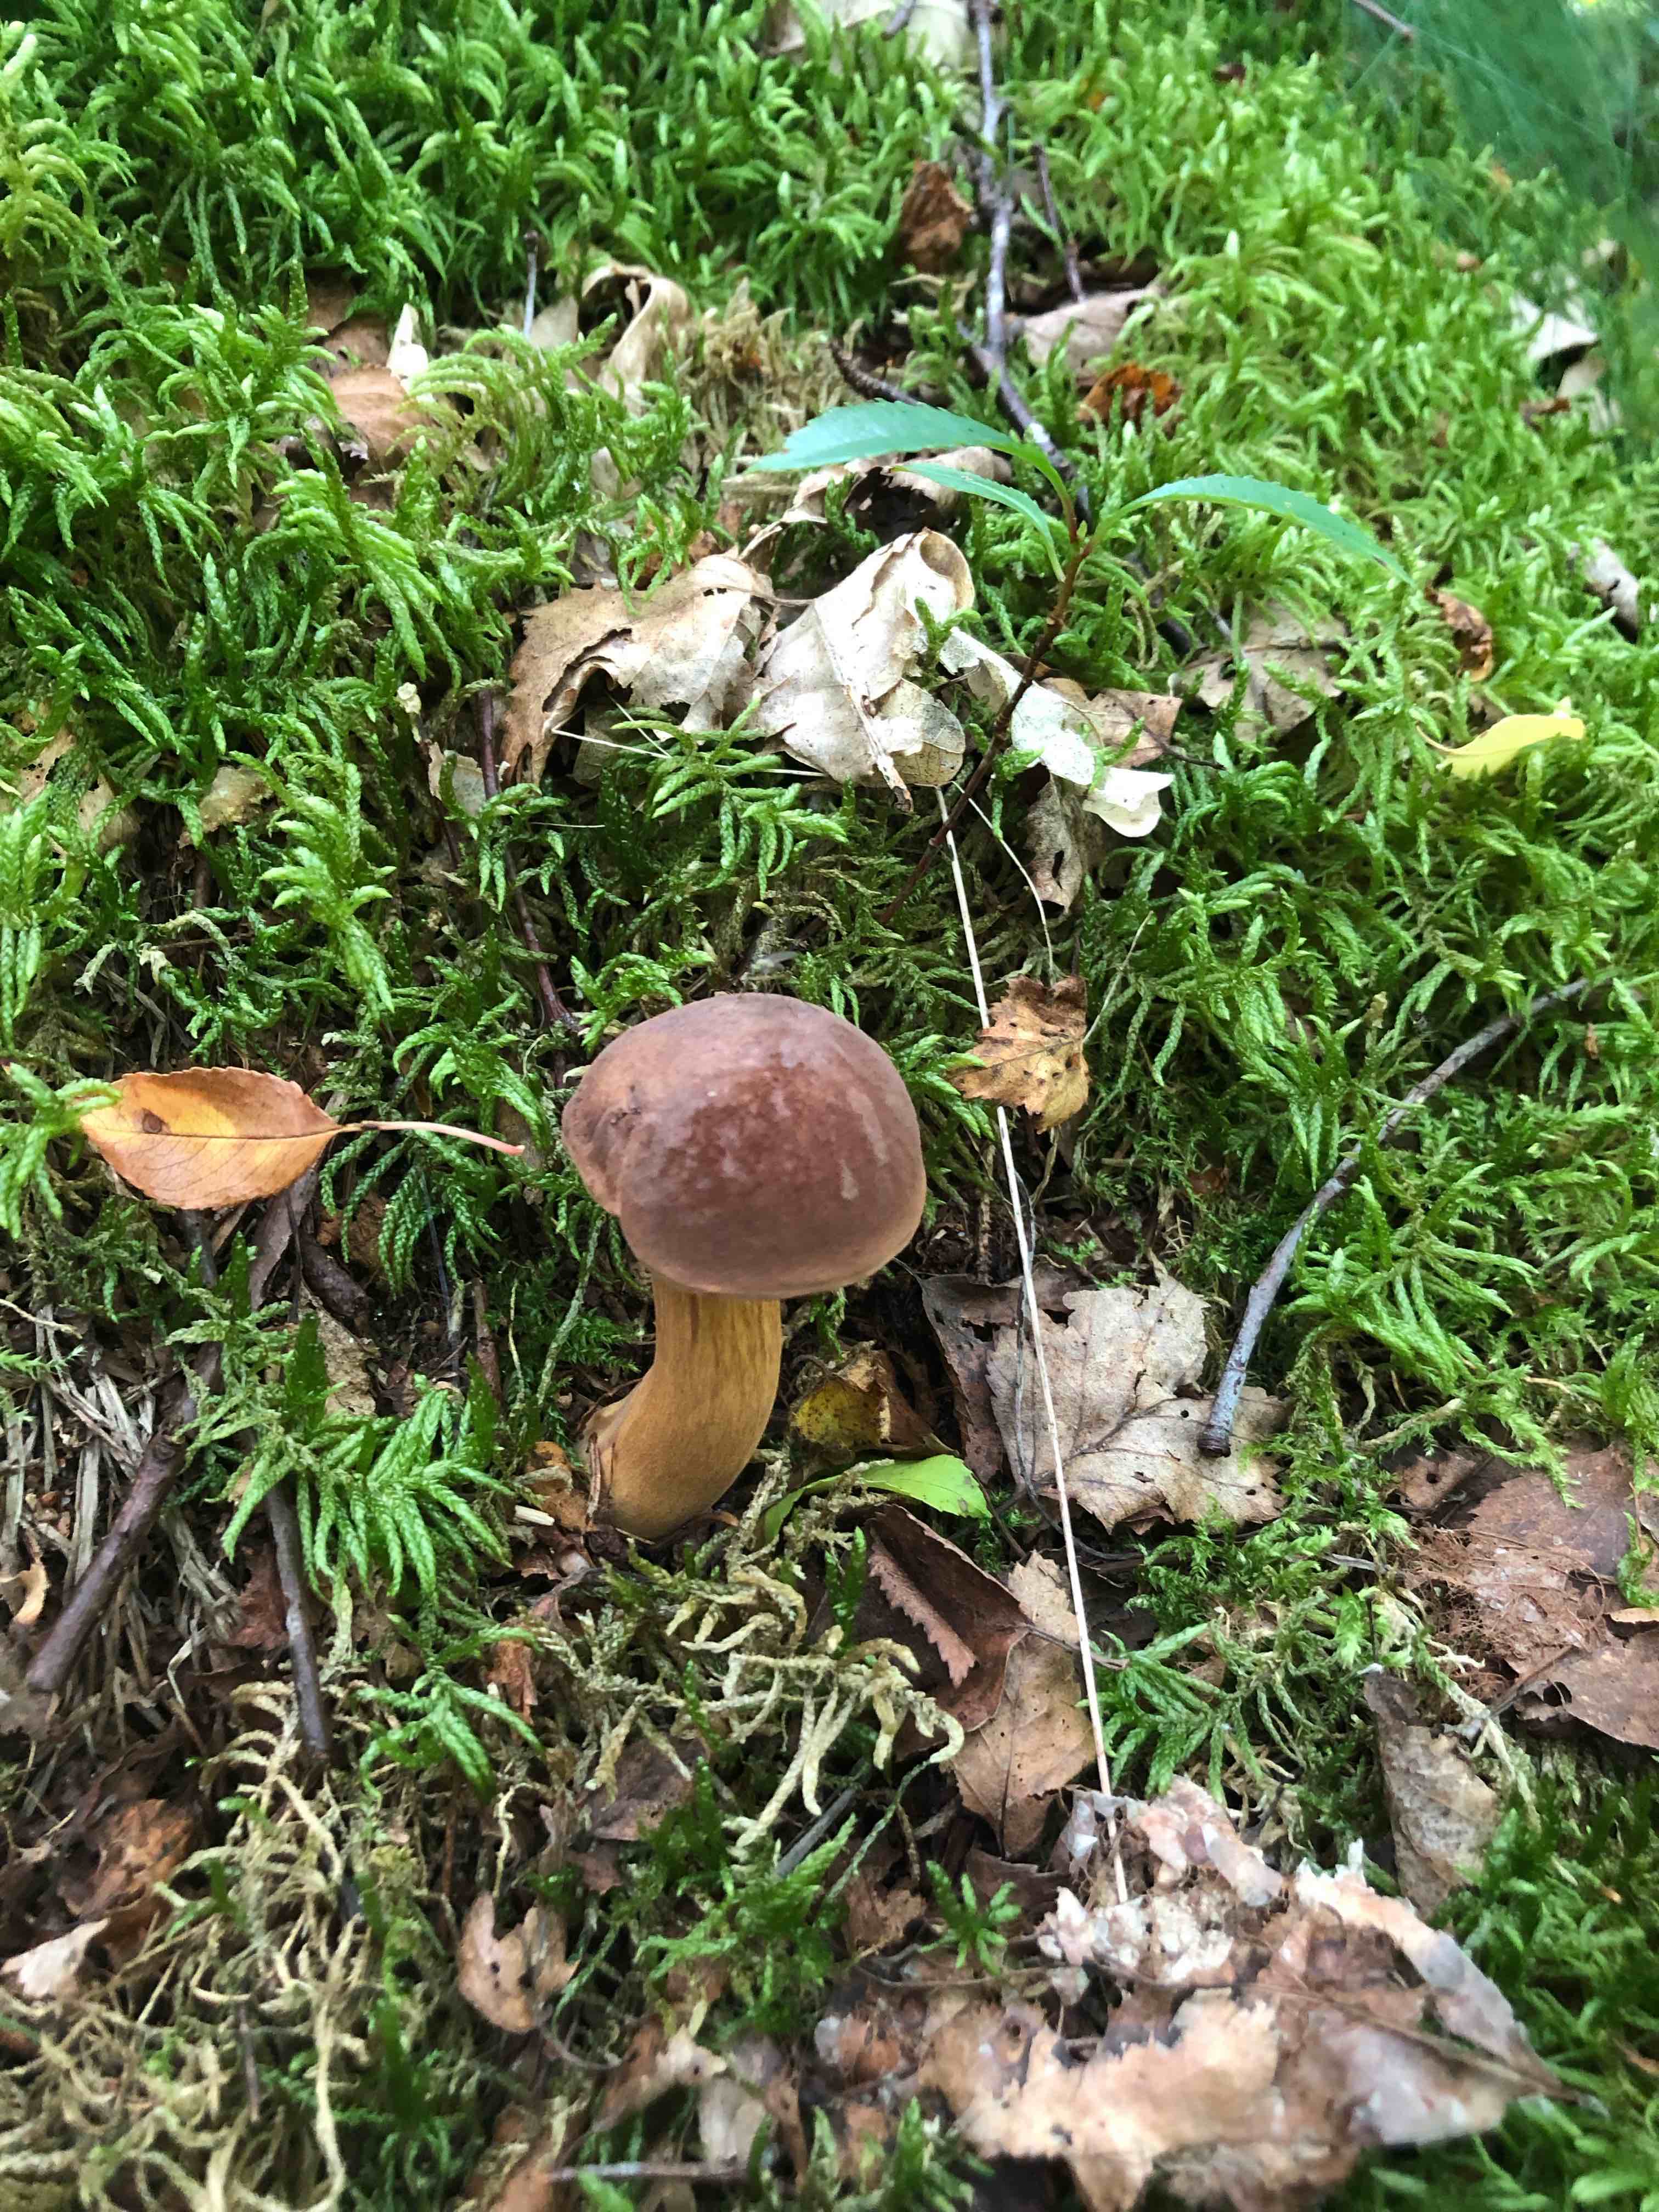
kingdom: Fungi
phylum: Basidiomycota
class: Agaricomycetes
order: Boletales
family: Boletaceae
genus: Imleria
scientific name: Imleria badia
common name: brunstokket rørhat
